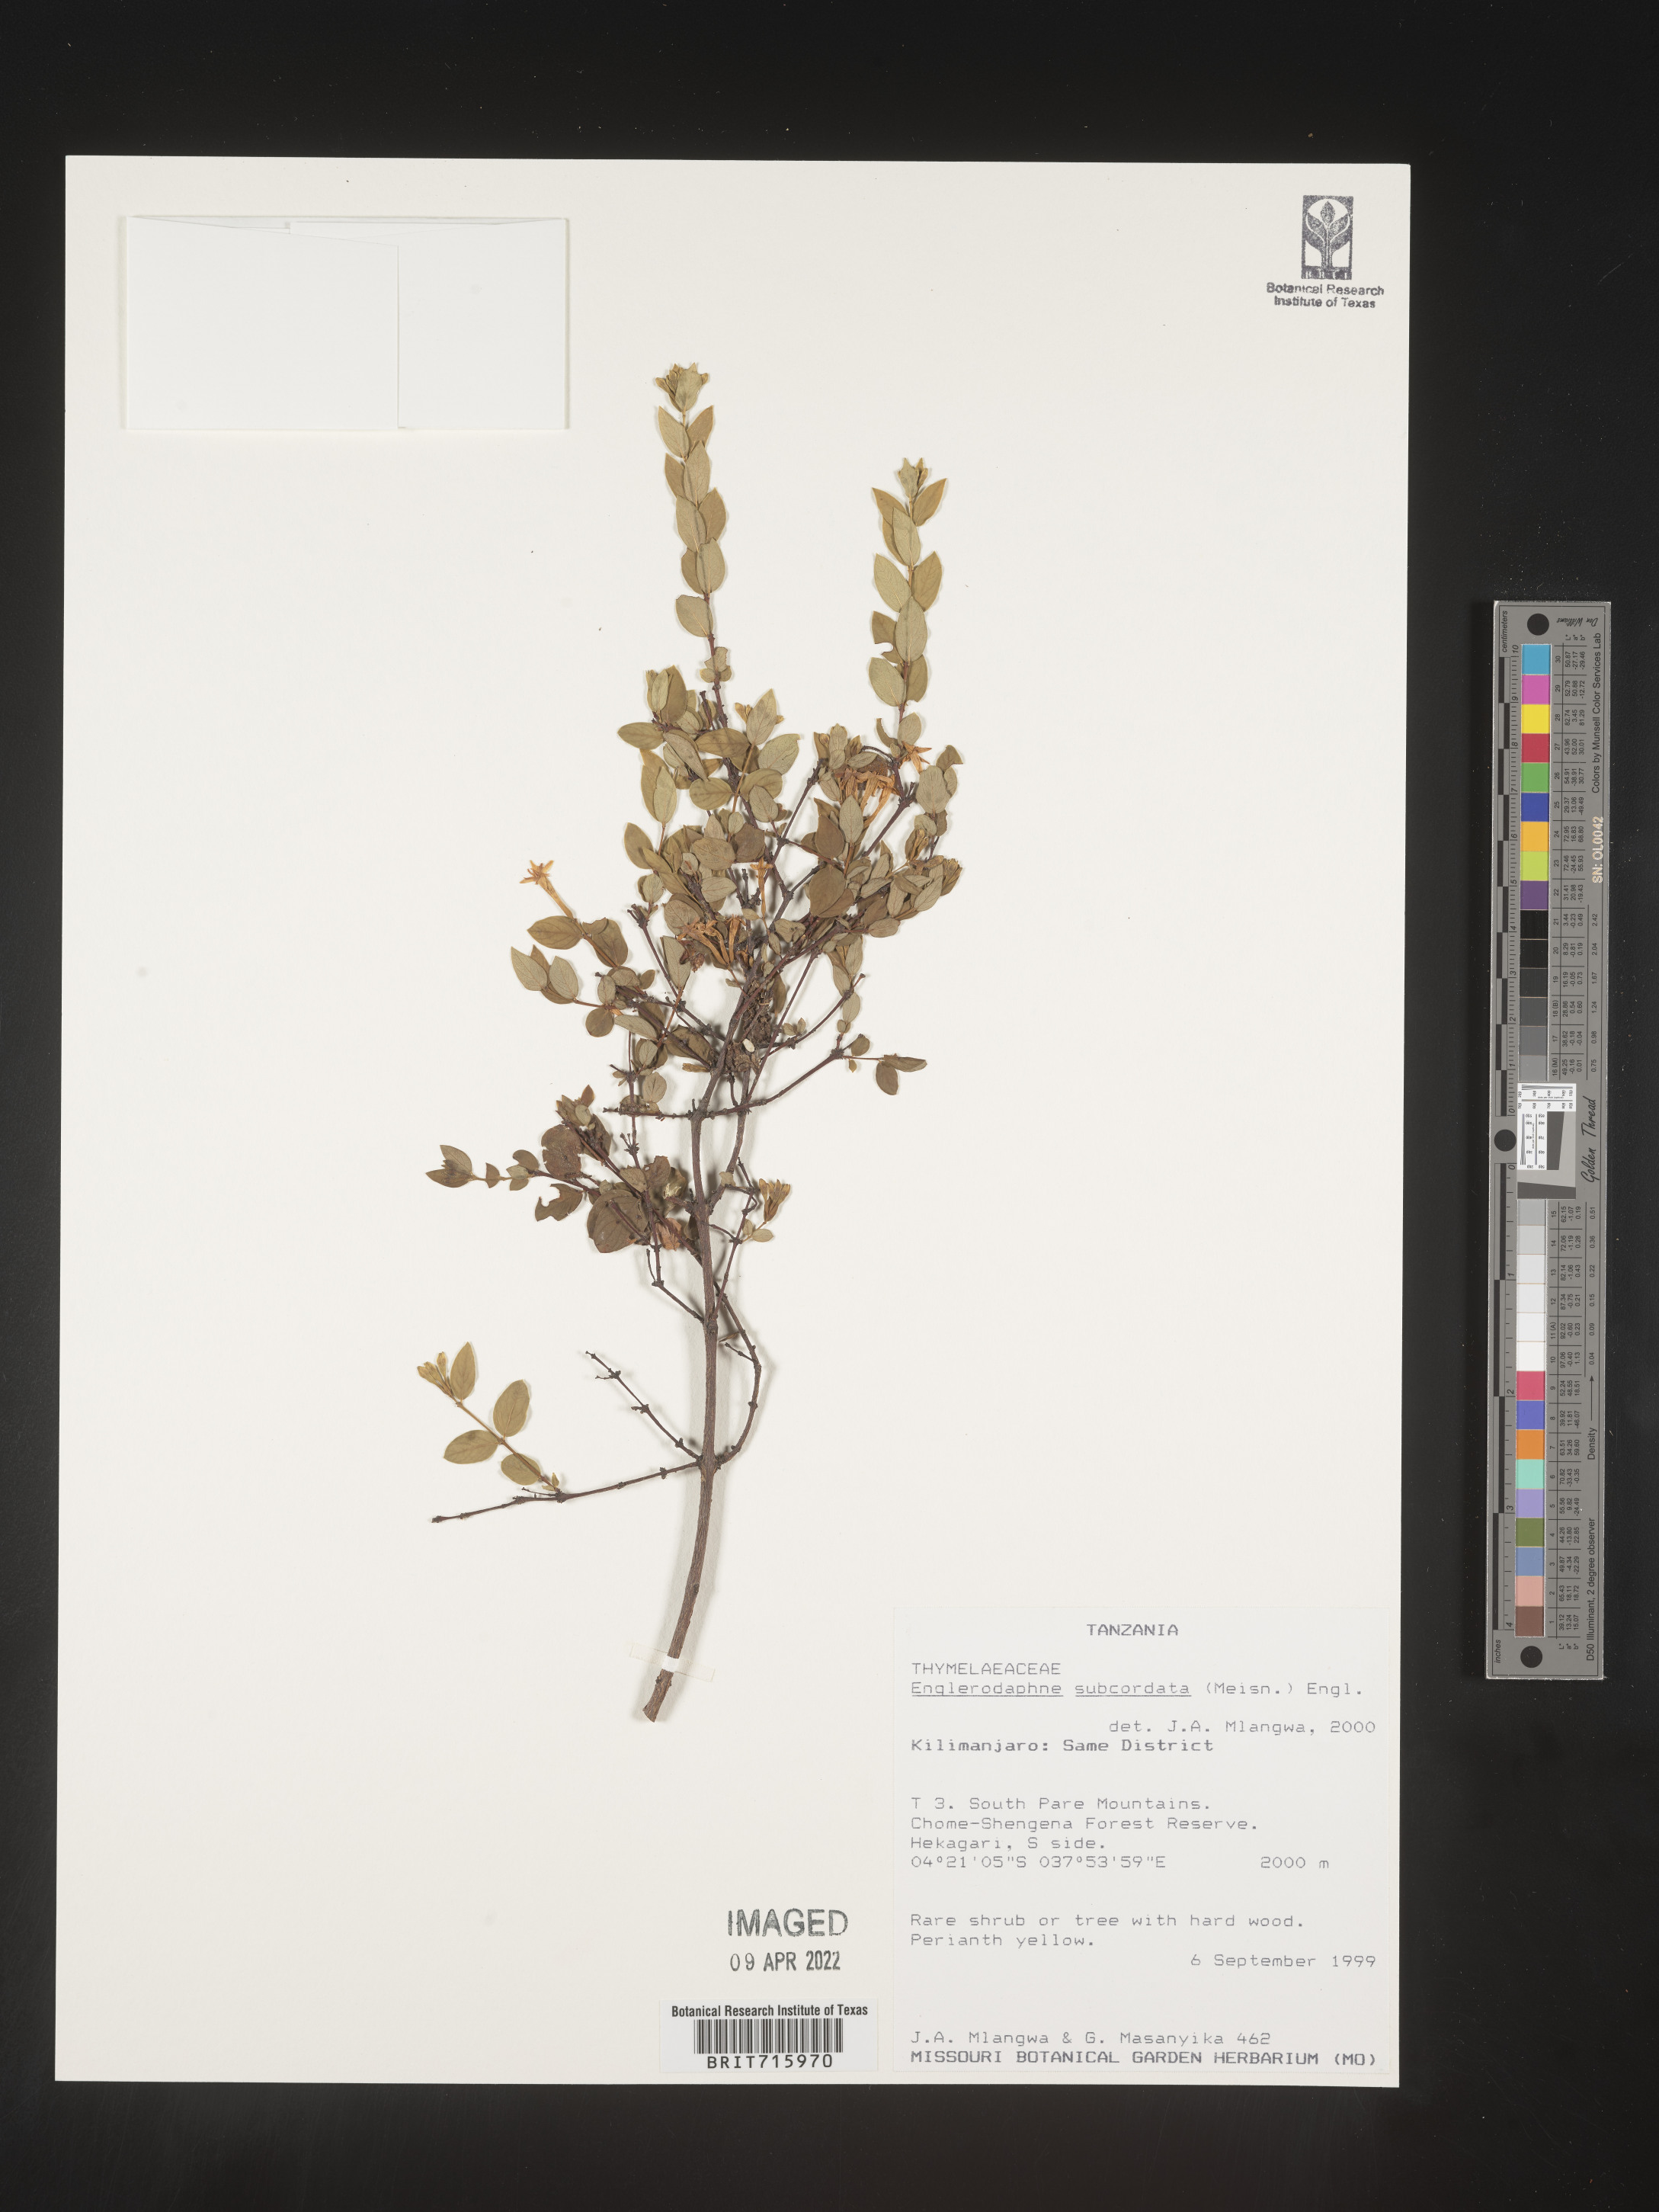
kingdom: Plantae
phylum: Tracheophyta
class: Magnoliopsida
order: Malvales
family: Thymelaeaceae
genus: Englerodaphne
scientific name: Englerodaphne
